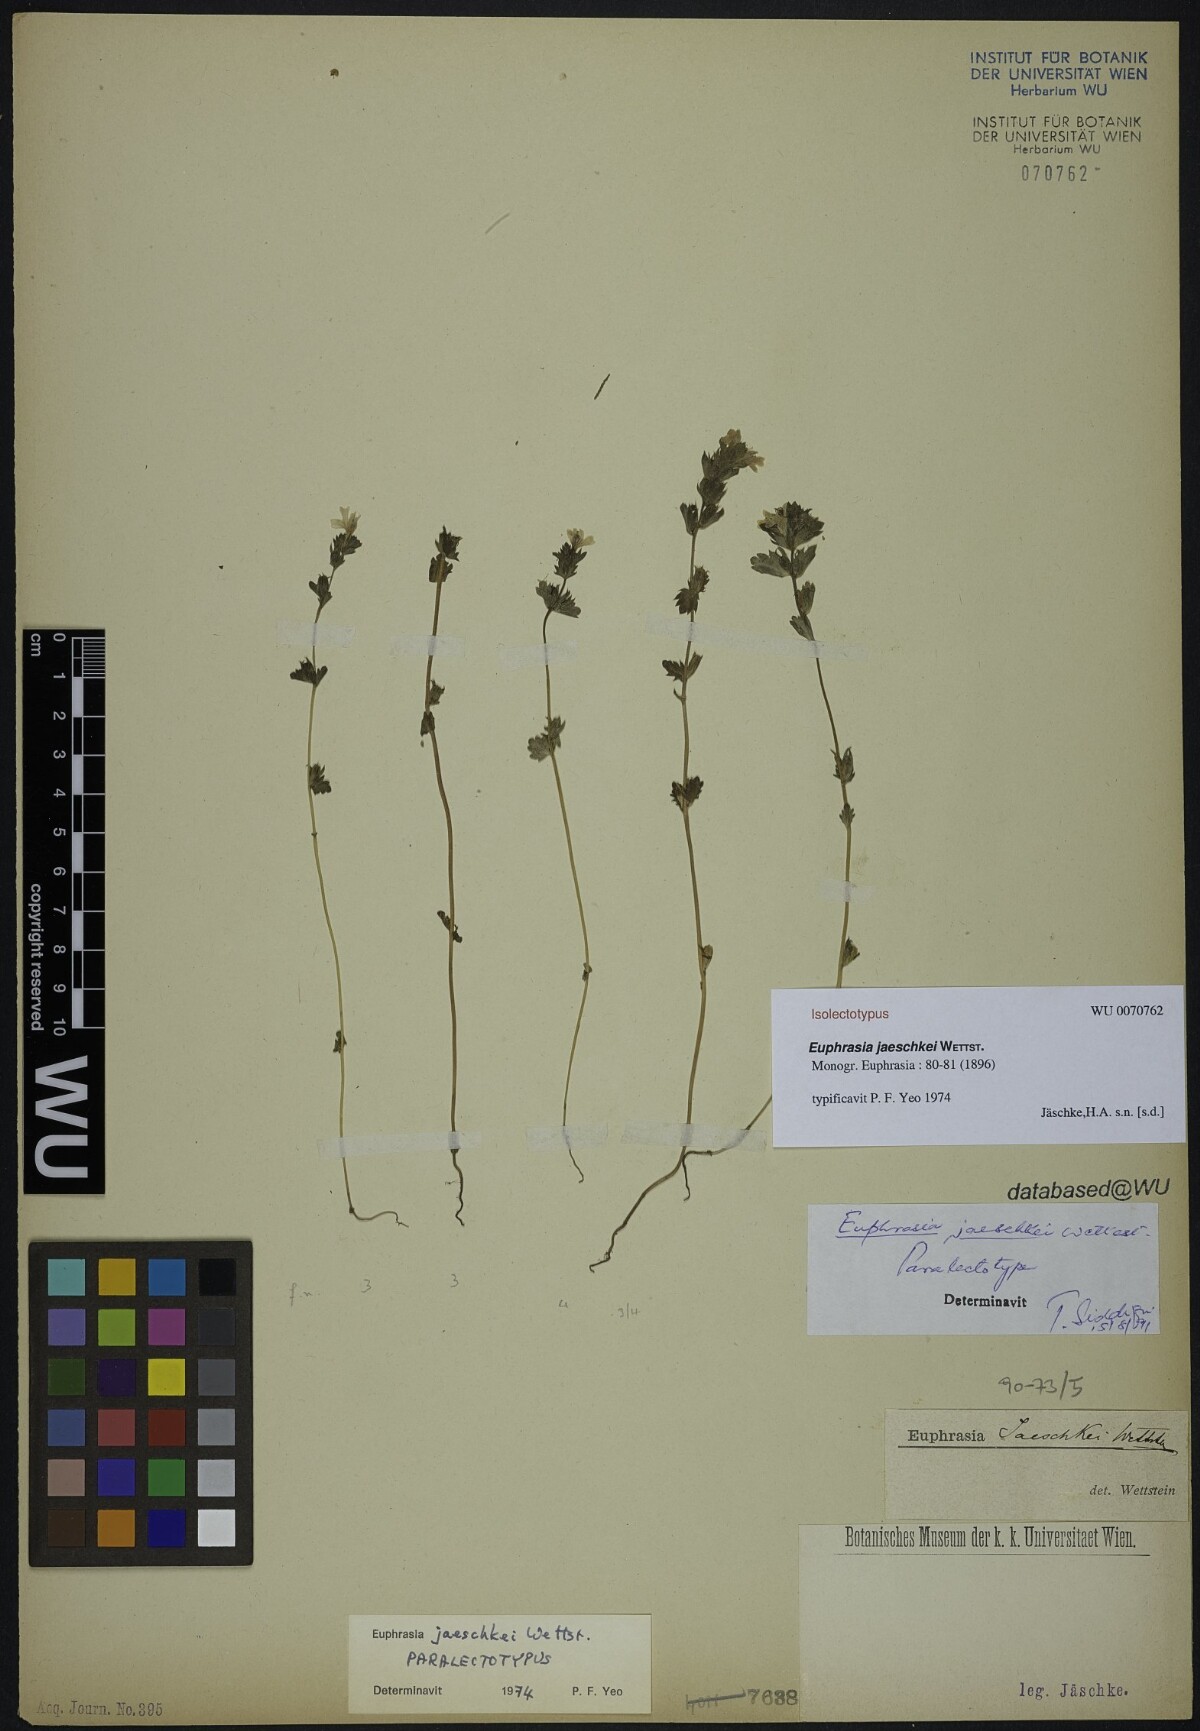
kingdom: Plantae
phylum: Tracheophyta
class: Magnoliopsida
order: Lamiales
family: Orobanchaceae
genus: Euphrasia
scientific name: Euphrasia jaeschkei
